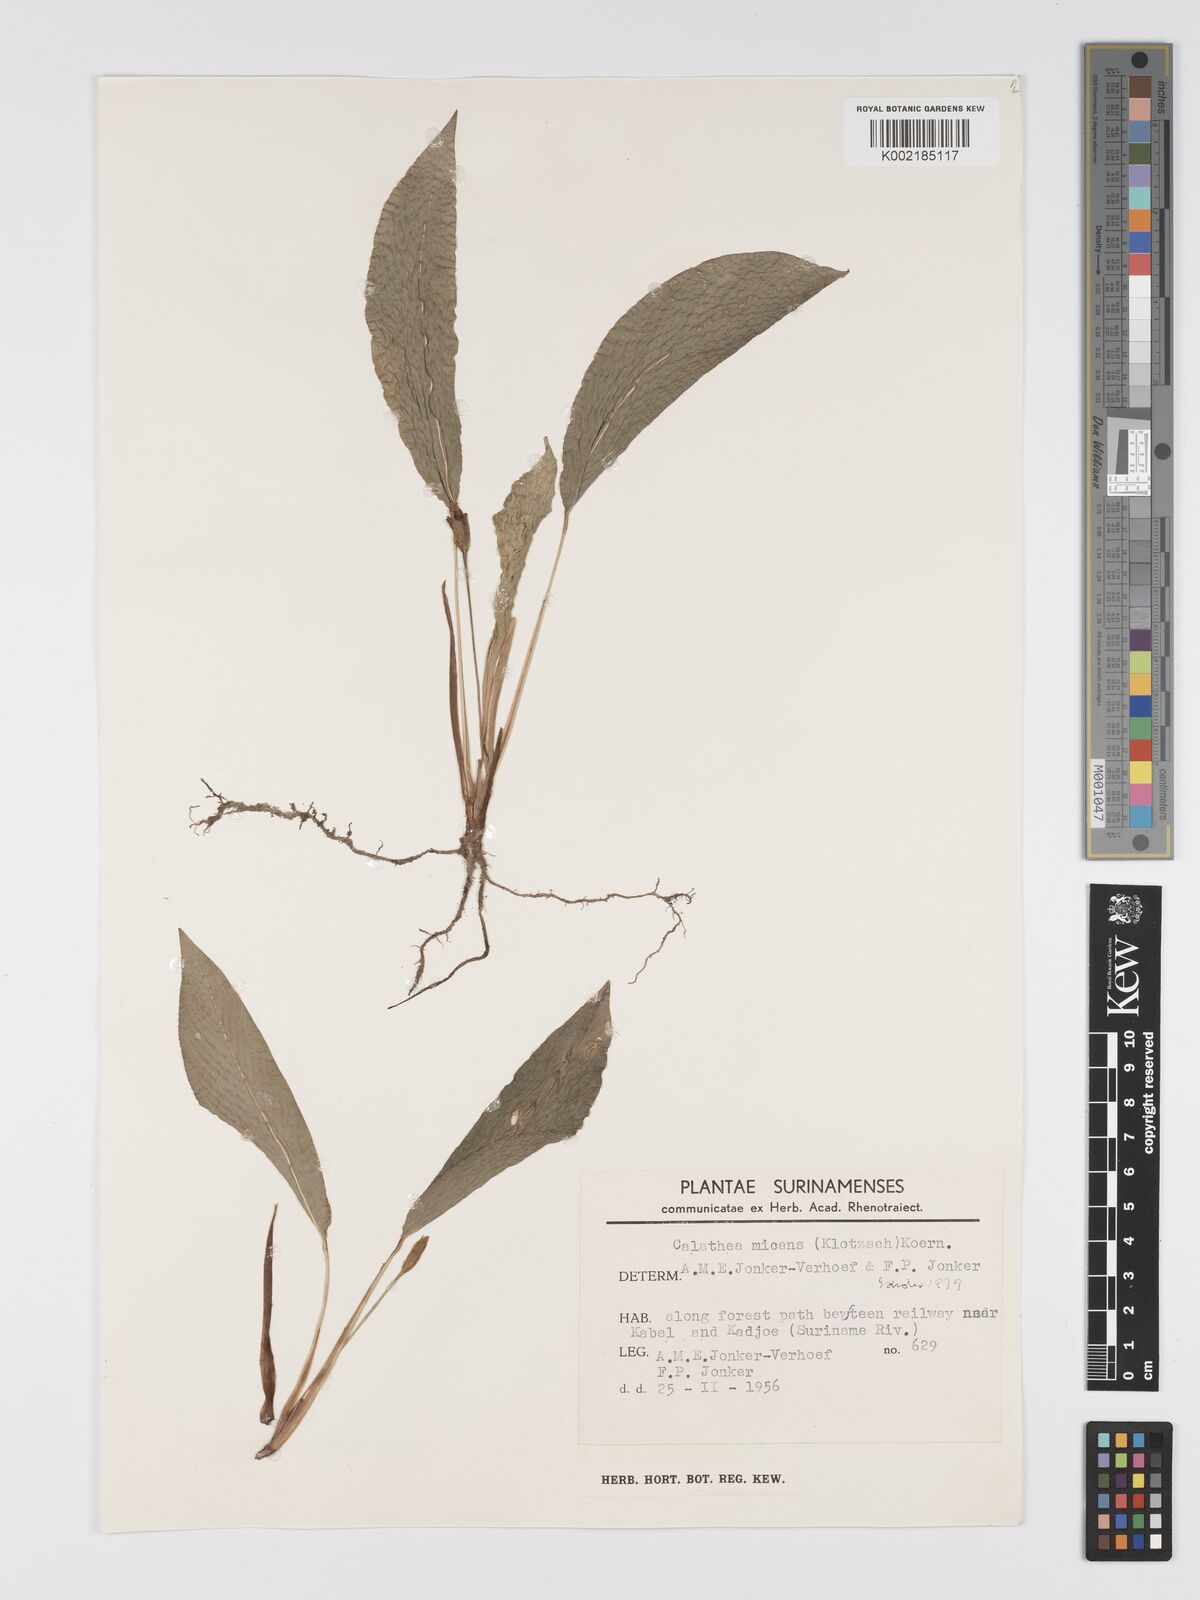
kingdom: Plantae
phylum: Tracheophyta
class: Liliopsida
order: Zingiberales
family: Marantaceae
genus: Goeppertia
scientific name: Goeppertia micans
